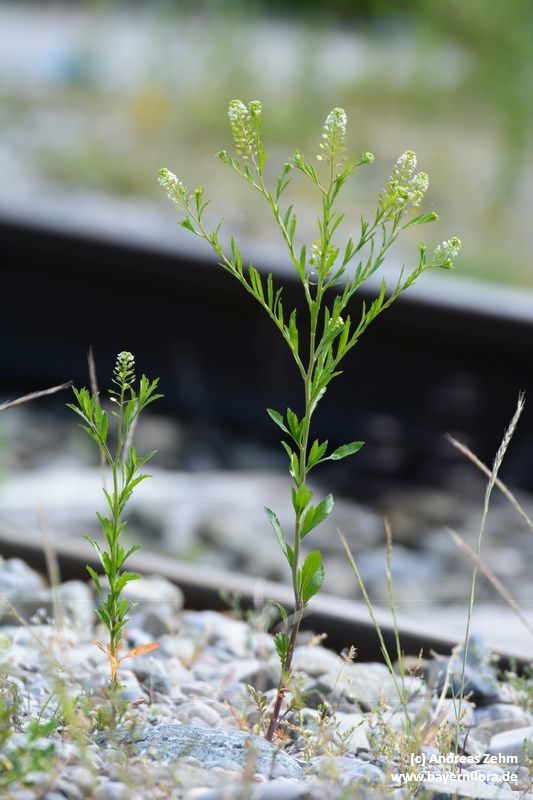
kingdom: Plantae
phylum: Tracheophyta
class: Magnoliopsida
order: Brassicales
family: Brassicaceae
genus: Lepidium
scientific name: Lepidium virginicum
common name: Least pepperwort
